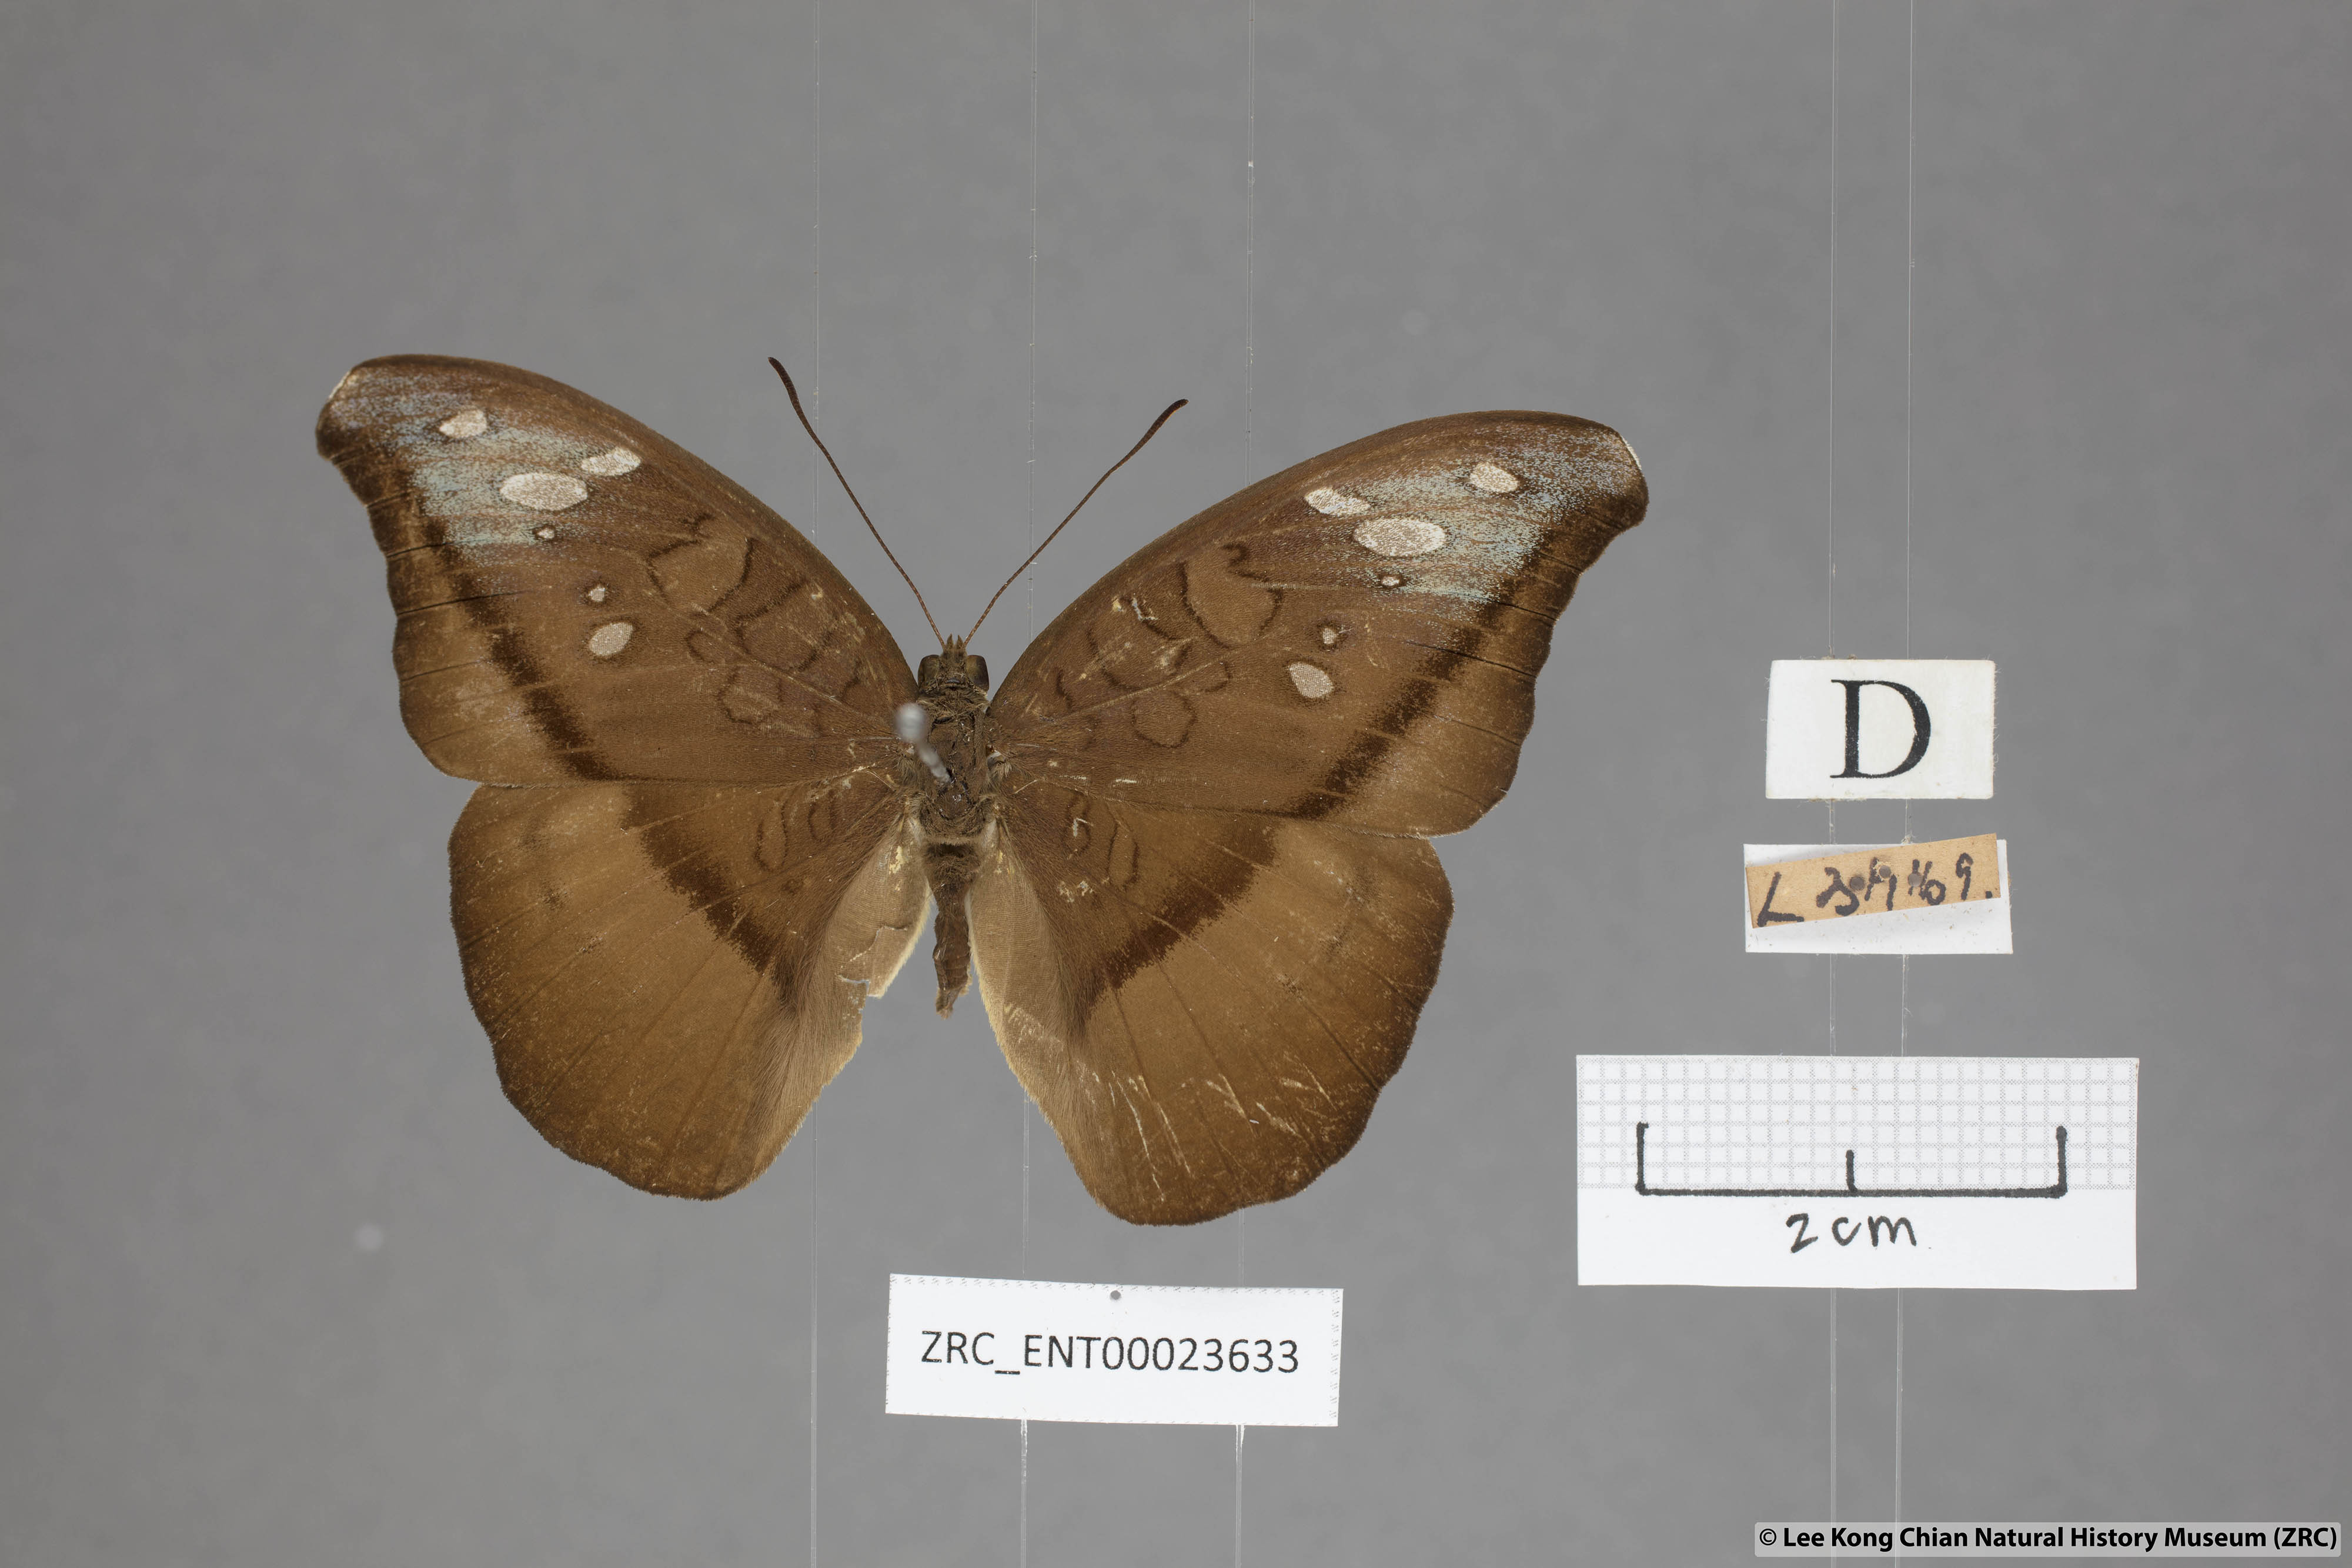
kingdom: Animalia
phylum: Arthropoda
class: Insecta
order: Lepidoptera
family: Nymphalidae
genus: Tanaecia
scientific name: Tanaecia cocytus
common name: Lavender count
